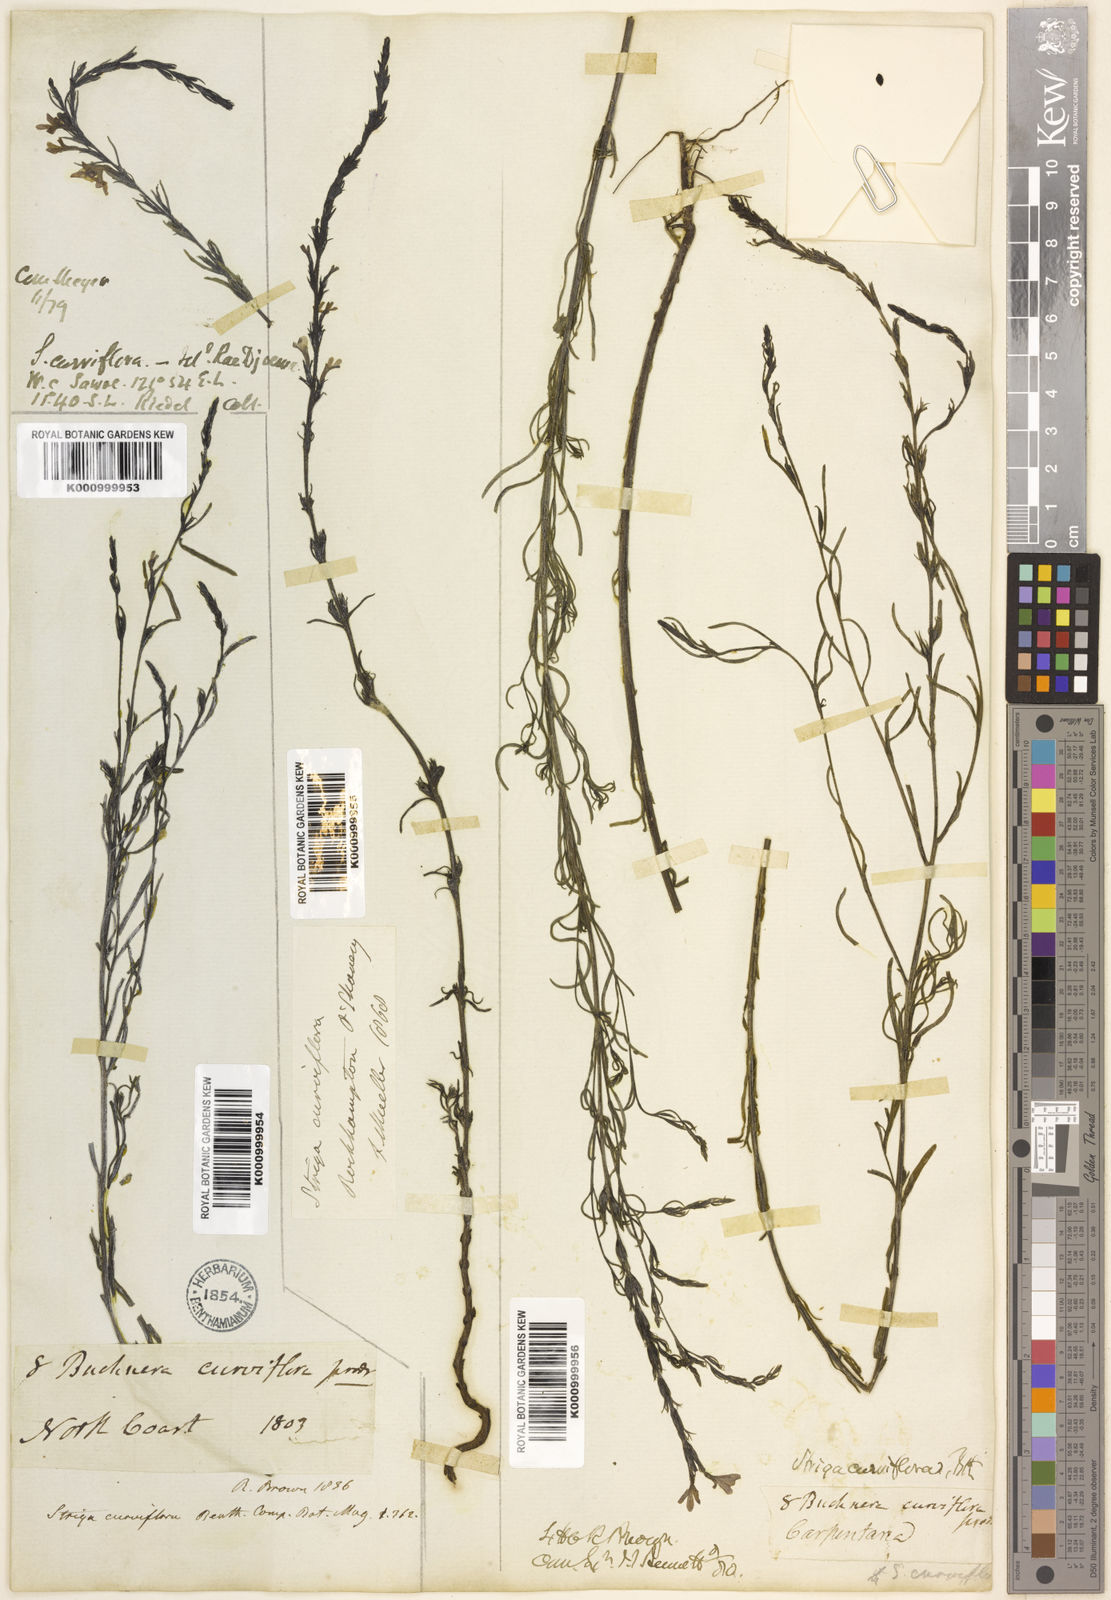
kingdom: Plantae
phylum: Tracheophyta
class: Magnoliopsida
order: Lamiales
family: Orobanchaceae
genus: Striga
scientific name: Striga curviflora
